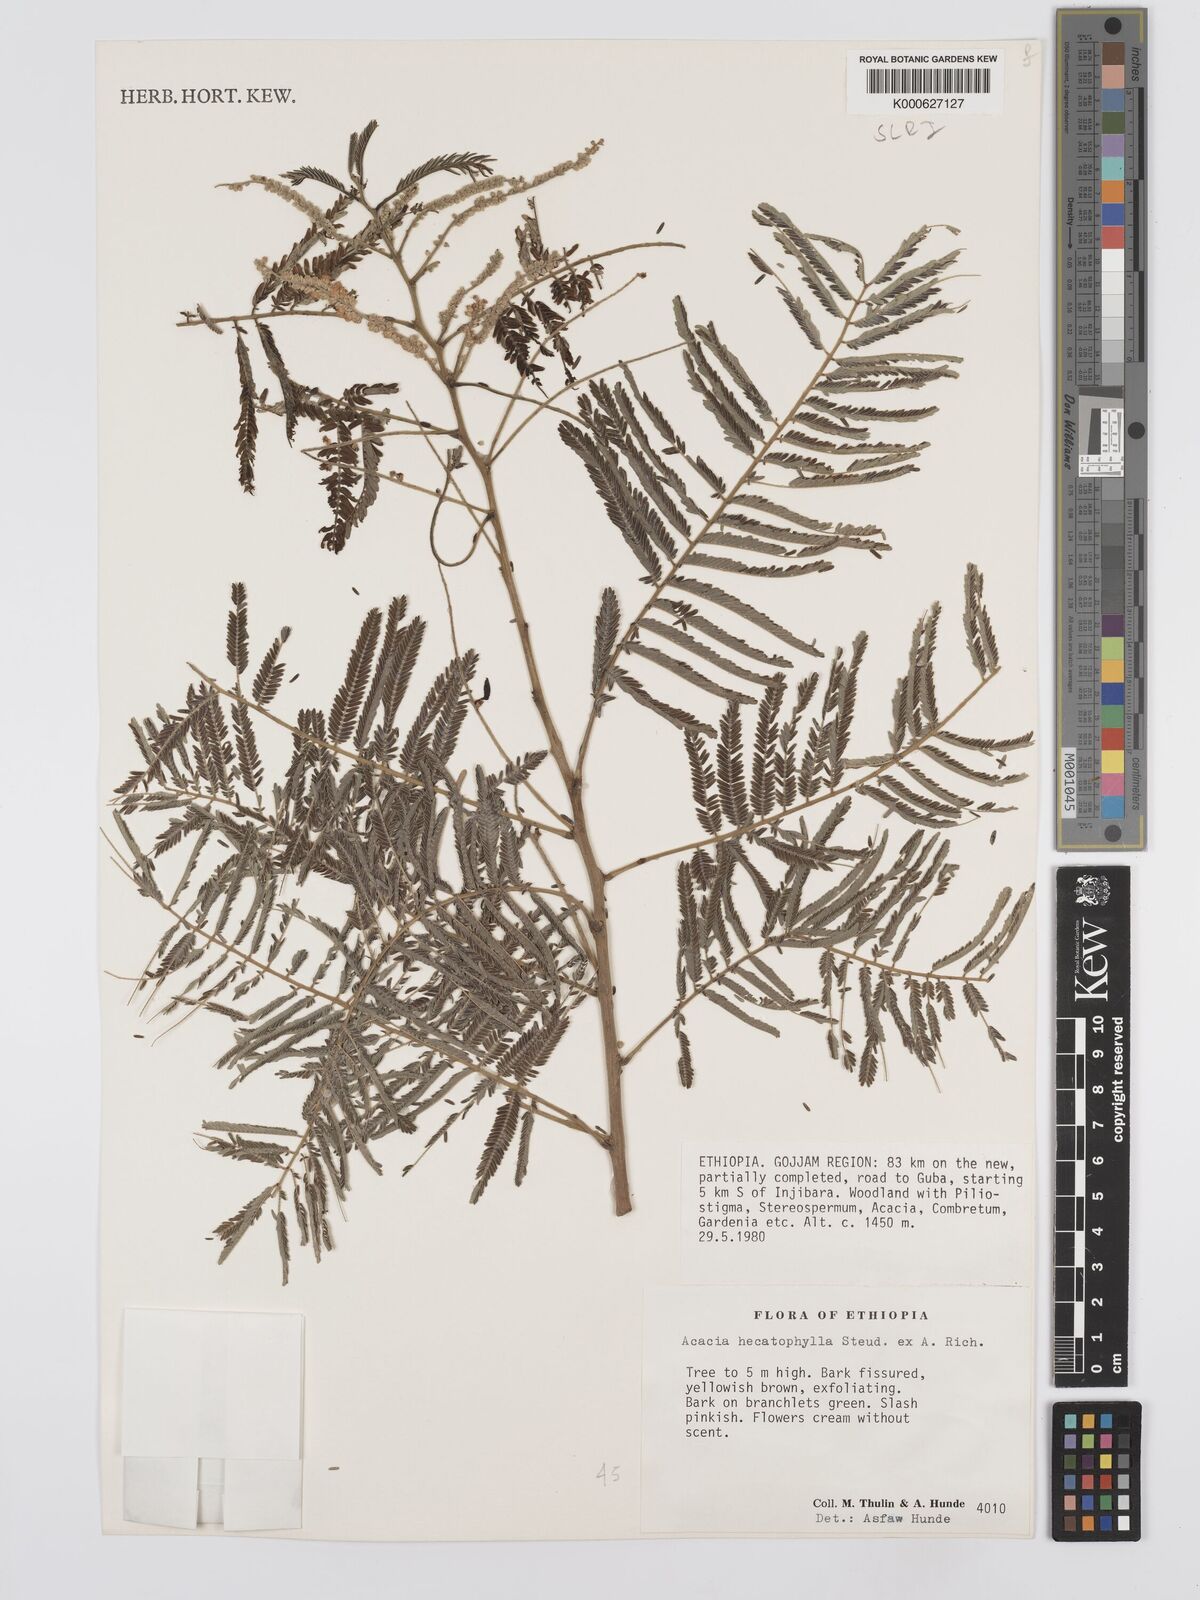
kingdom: Plantae
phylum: Tracheophyta
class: Magnoliopsida
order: Fabales
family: Fabaceae
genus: Senegalia
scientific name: Senegalia hecatophylla
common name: Long pod
